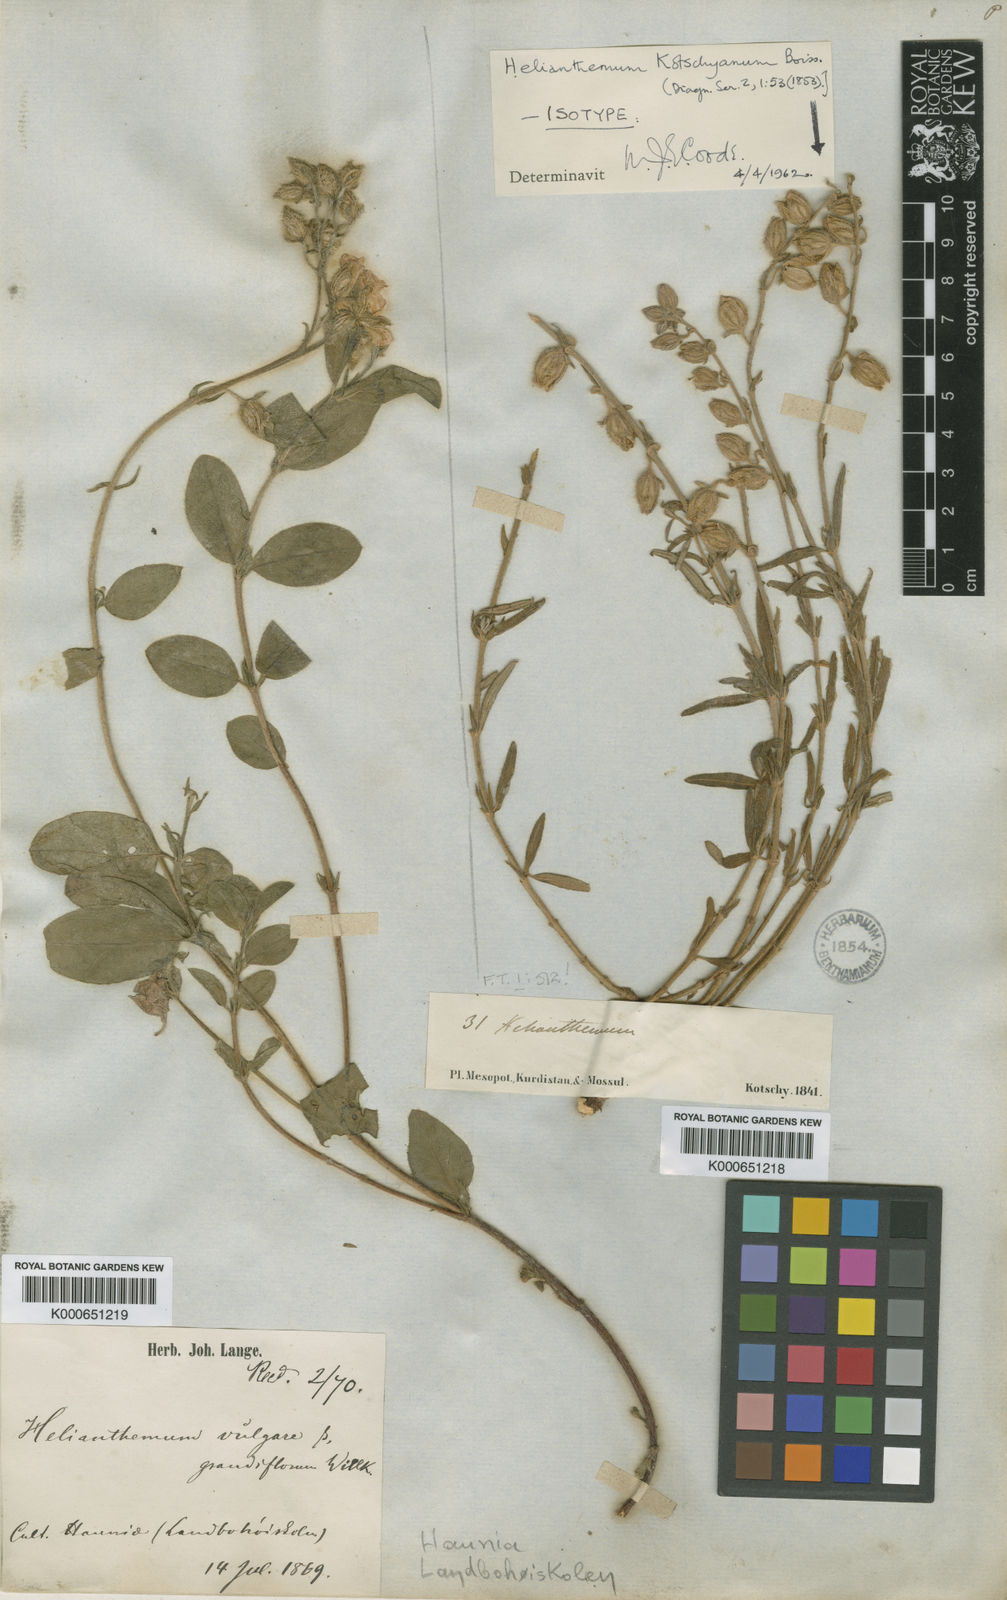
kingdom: Plantae
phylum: Tracheophyta
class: Magnoliopsida
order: Malvales
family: Cistaceae
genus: Helianthemum
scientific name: Helianthemum kotschyanum
